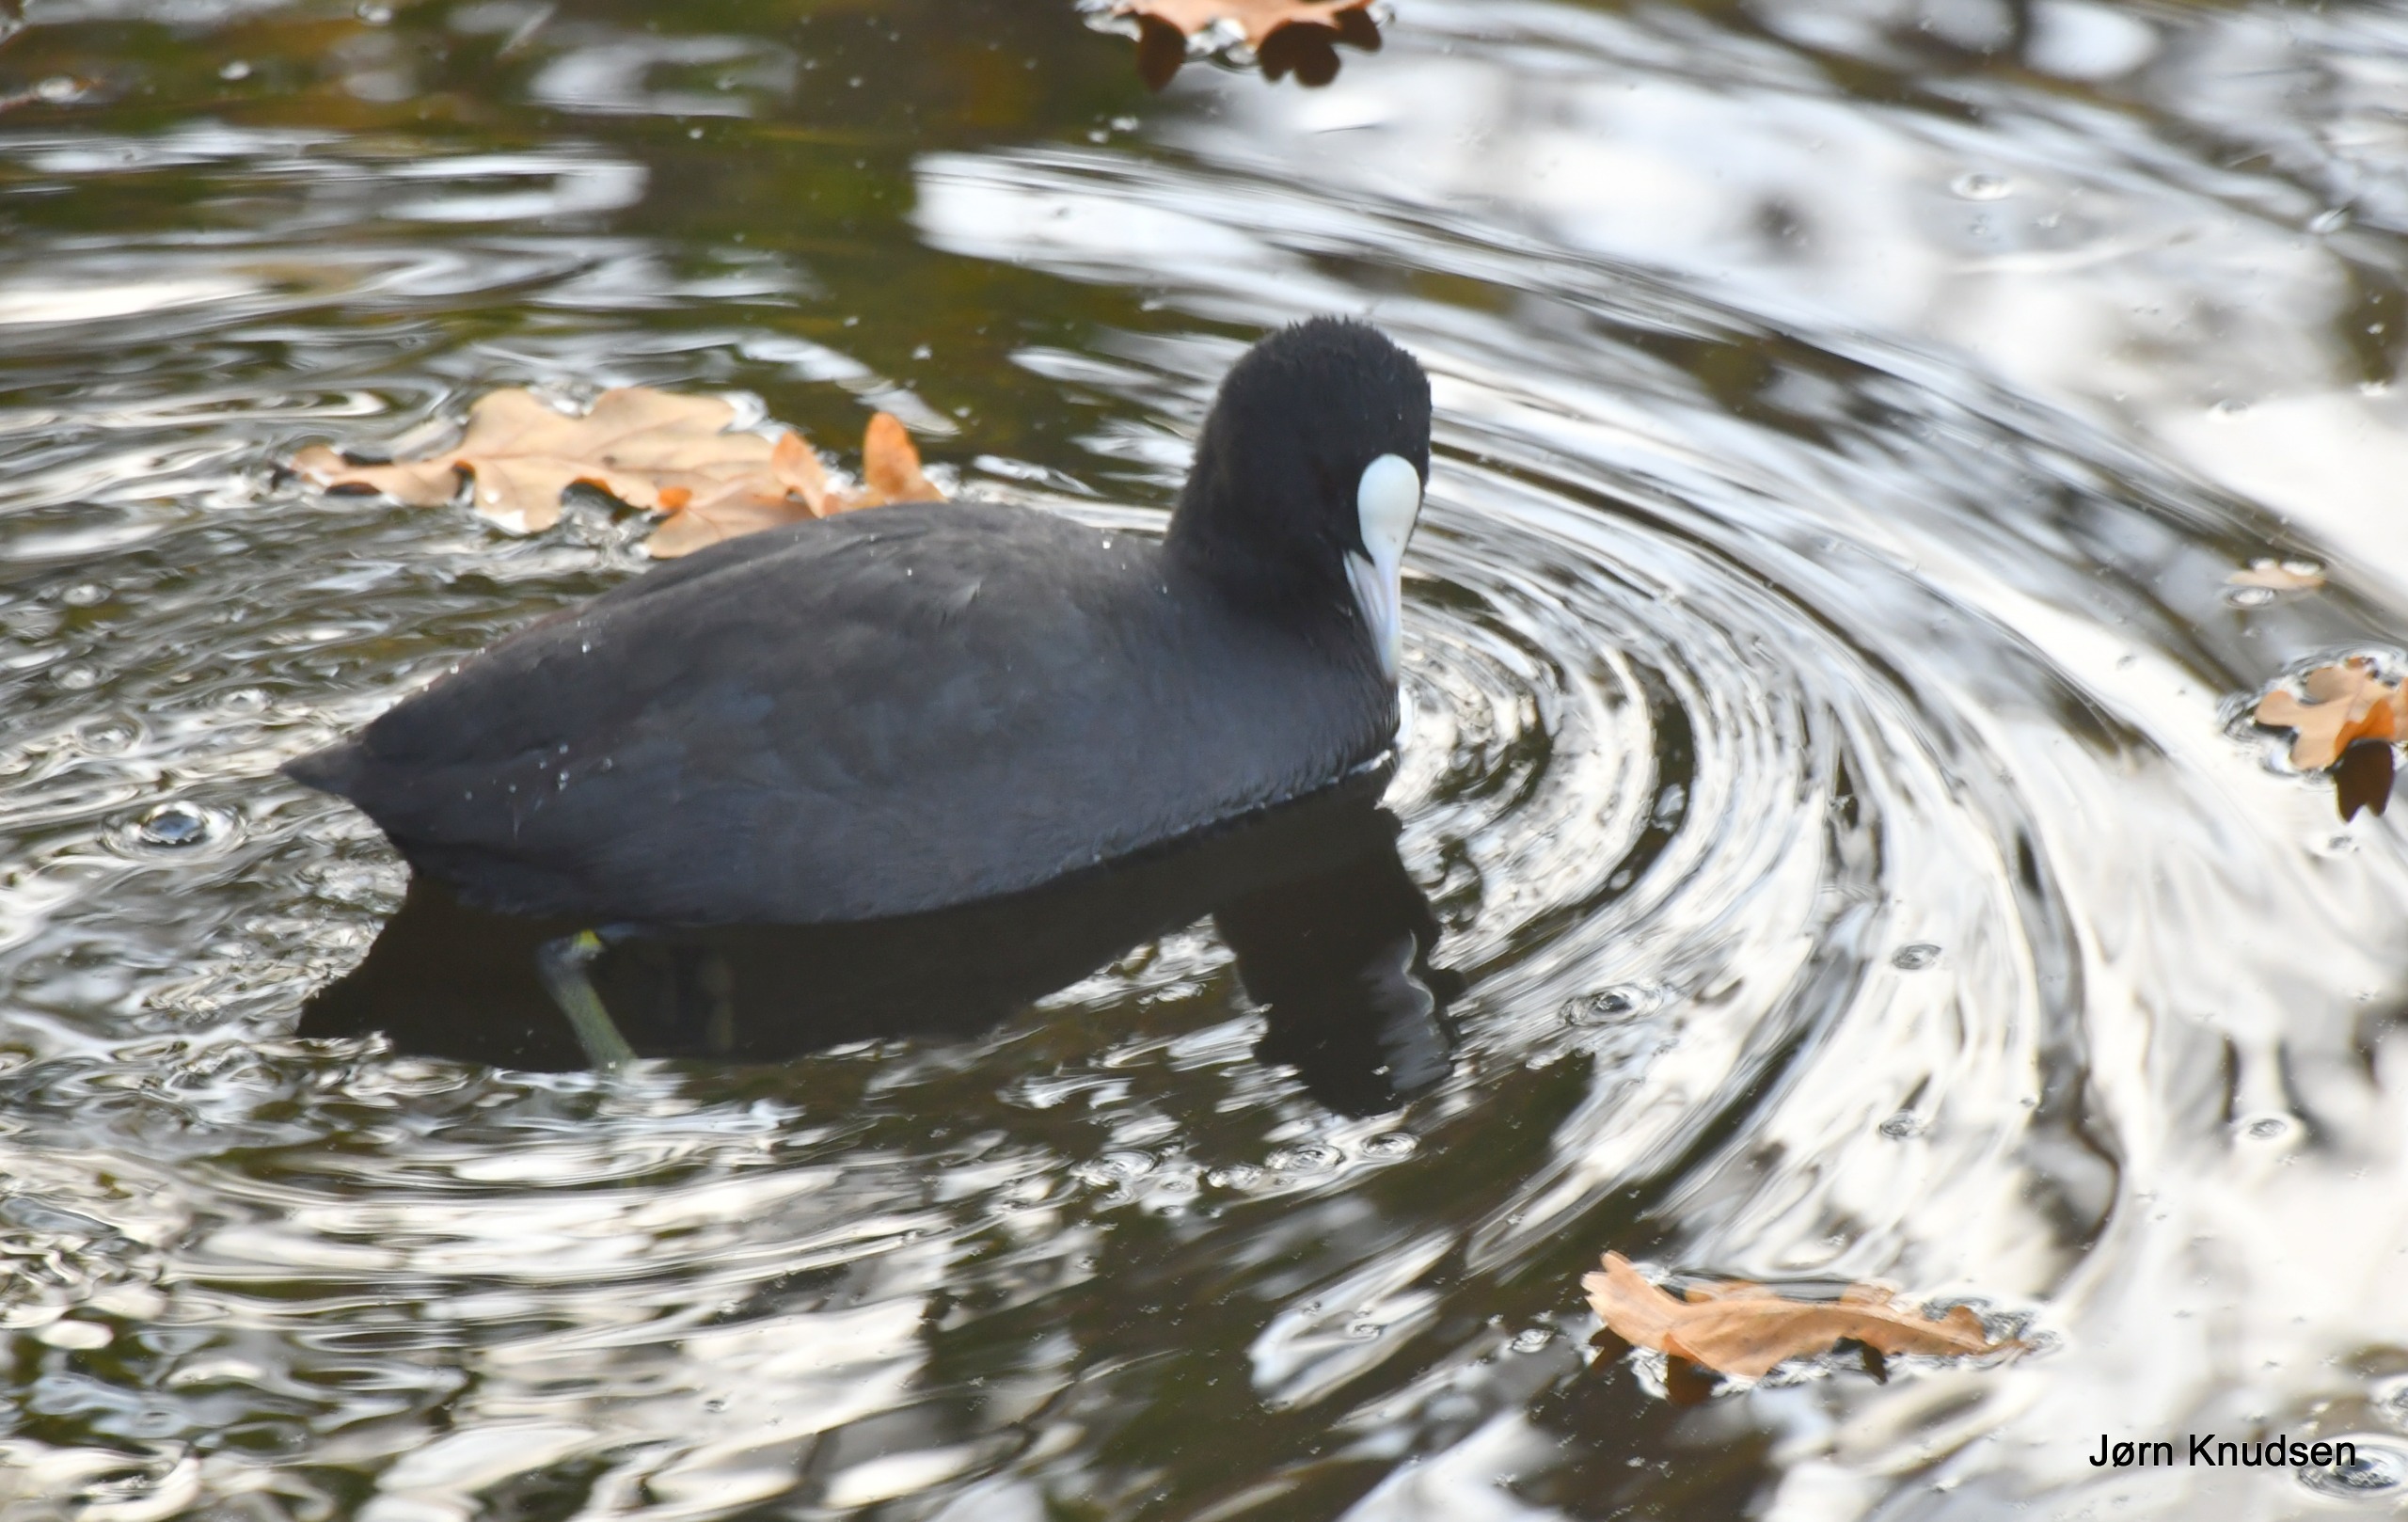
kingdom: Animalia
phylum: Chordata
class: Aves
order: Gruiformes
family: Rallidae
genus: Fulica
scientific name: Fulica atra
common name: Blishøne
